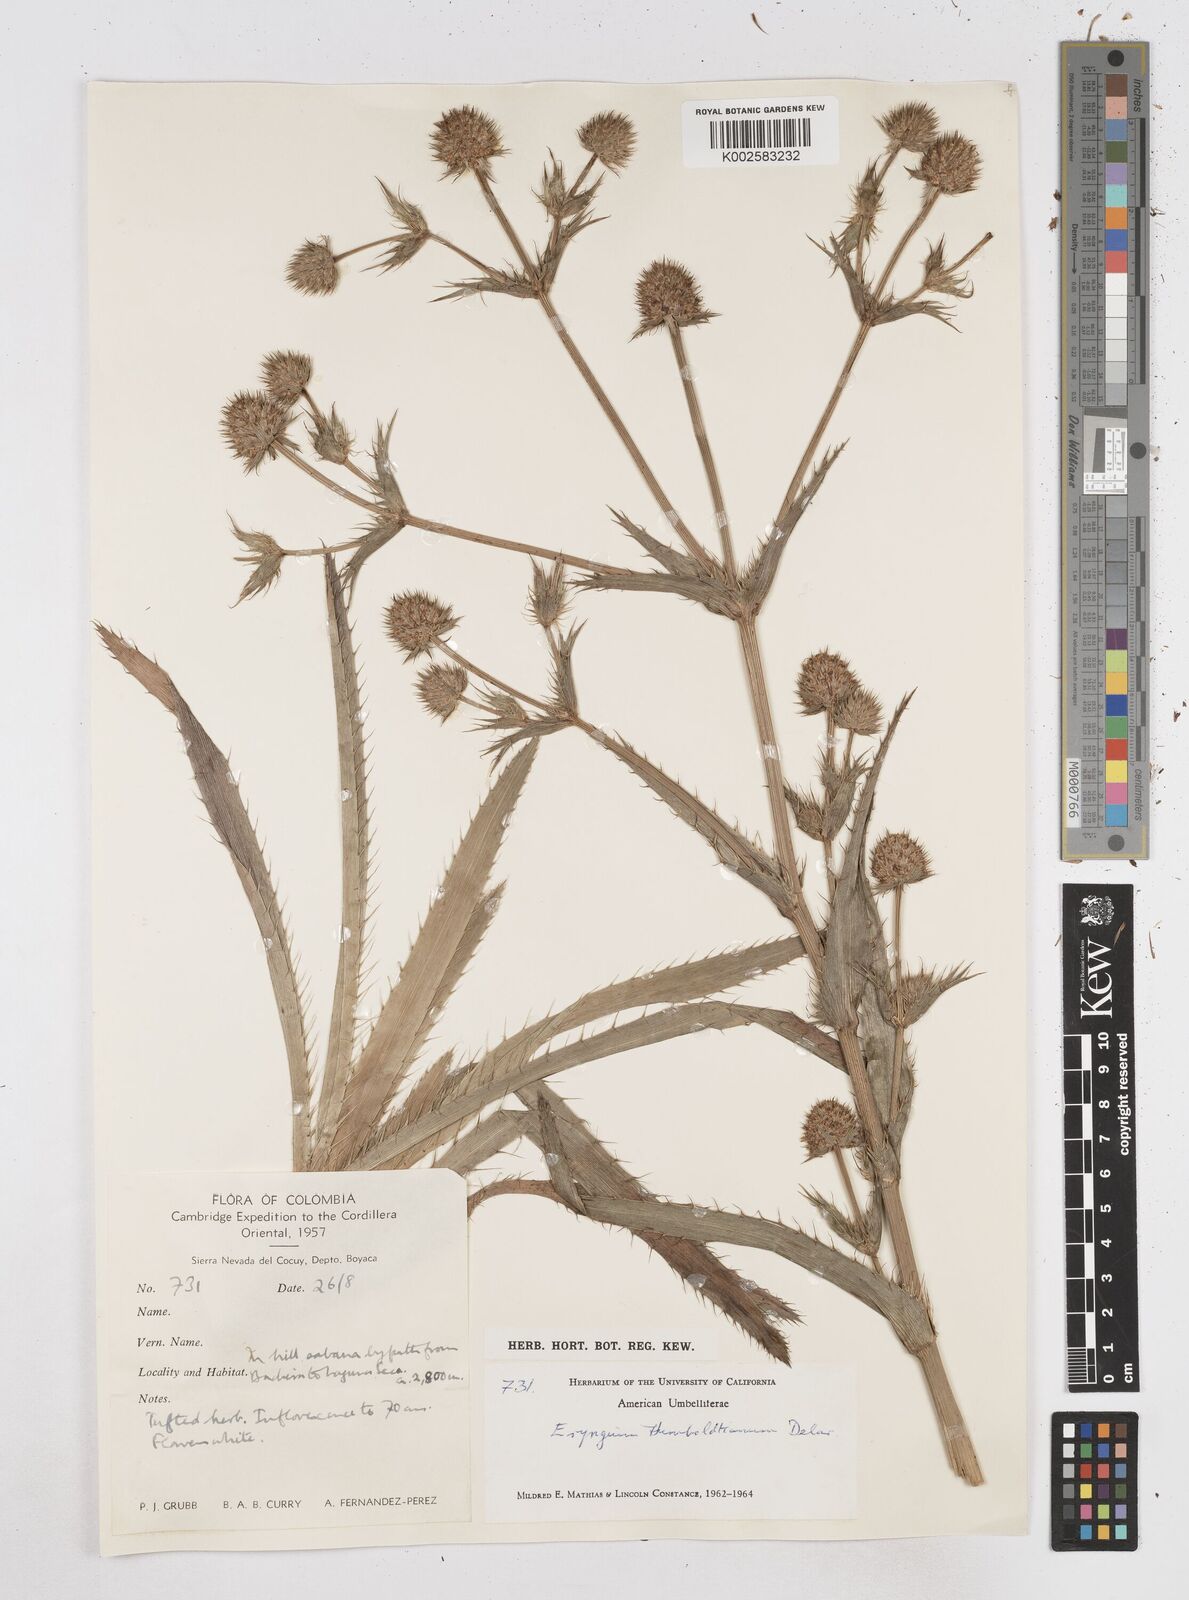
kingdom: Plantae
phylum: Tracheophyta
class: Magnoliopsida
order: Apiales
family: Apiaceae
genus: Eryngium
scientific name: Eryngium humboldtii
